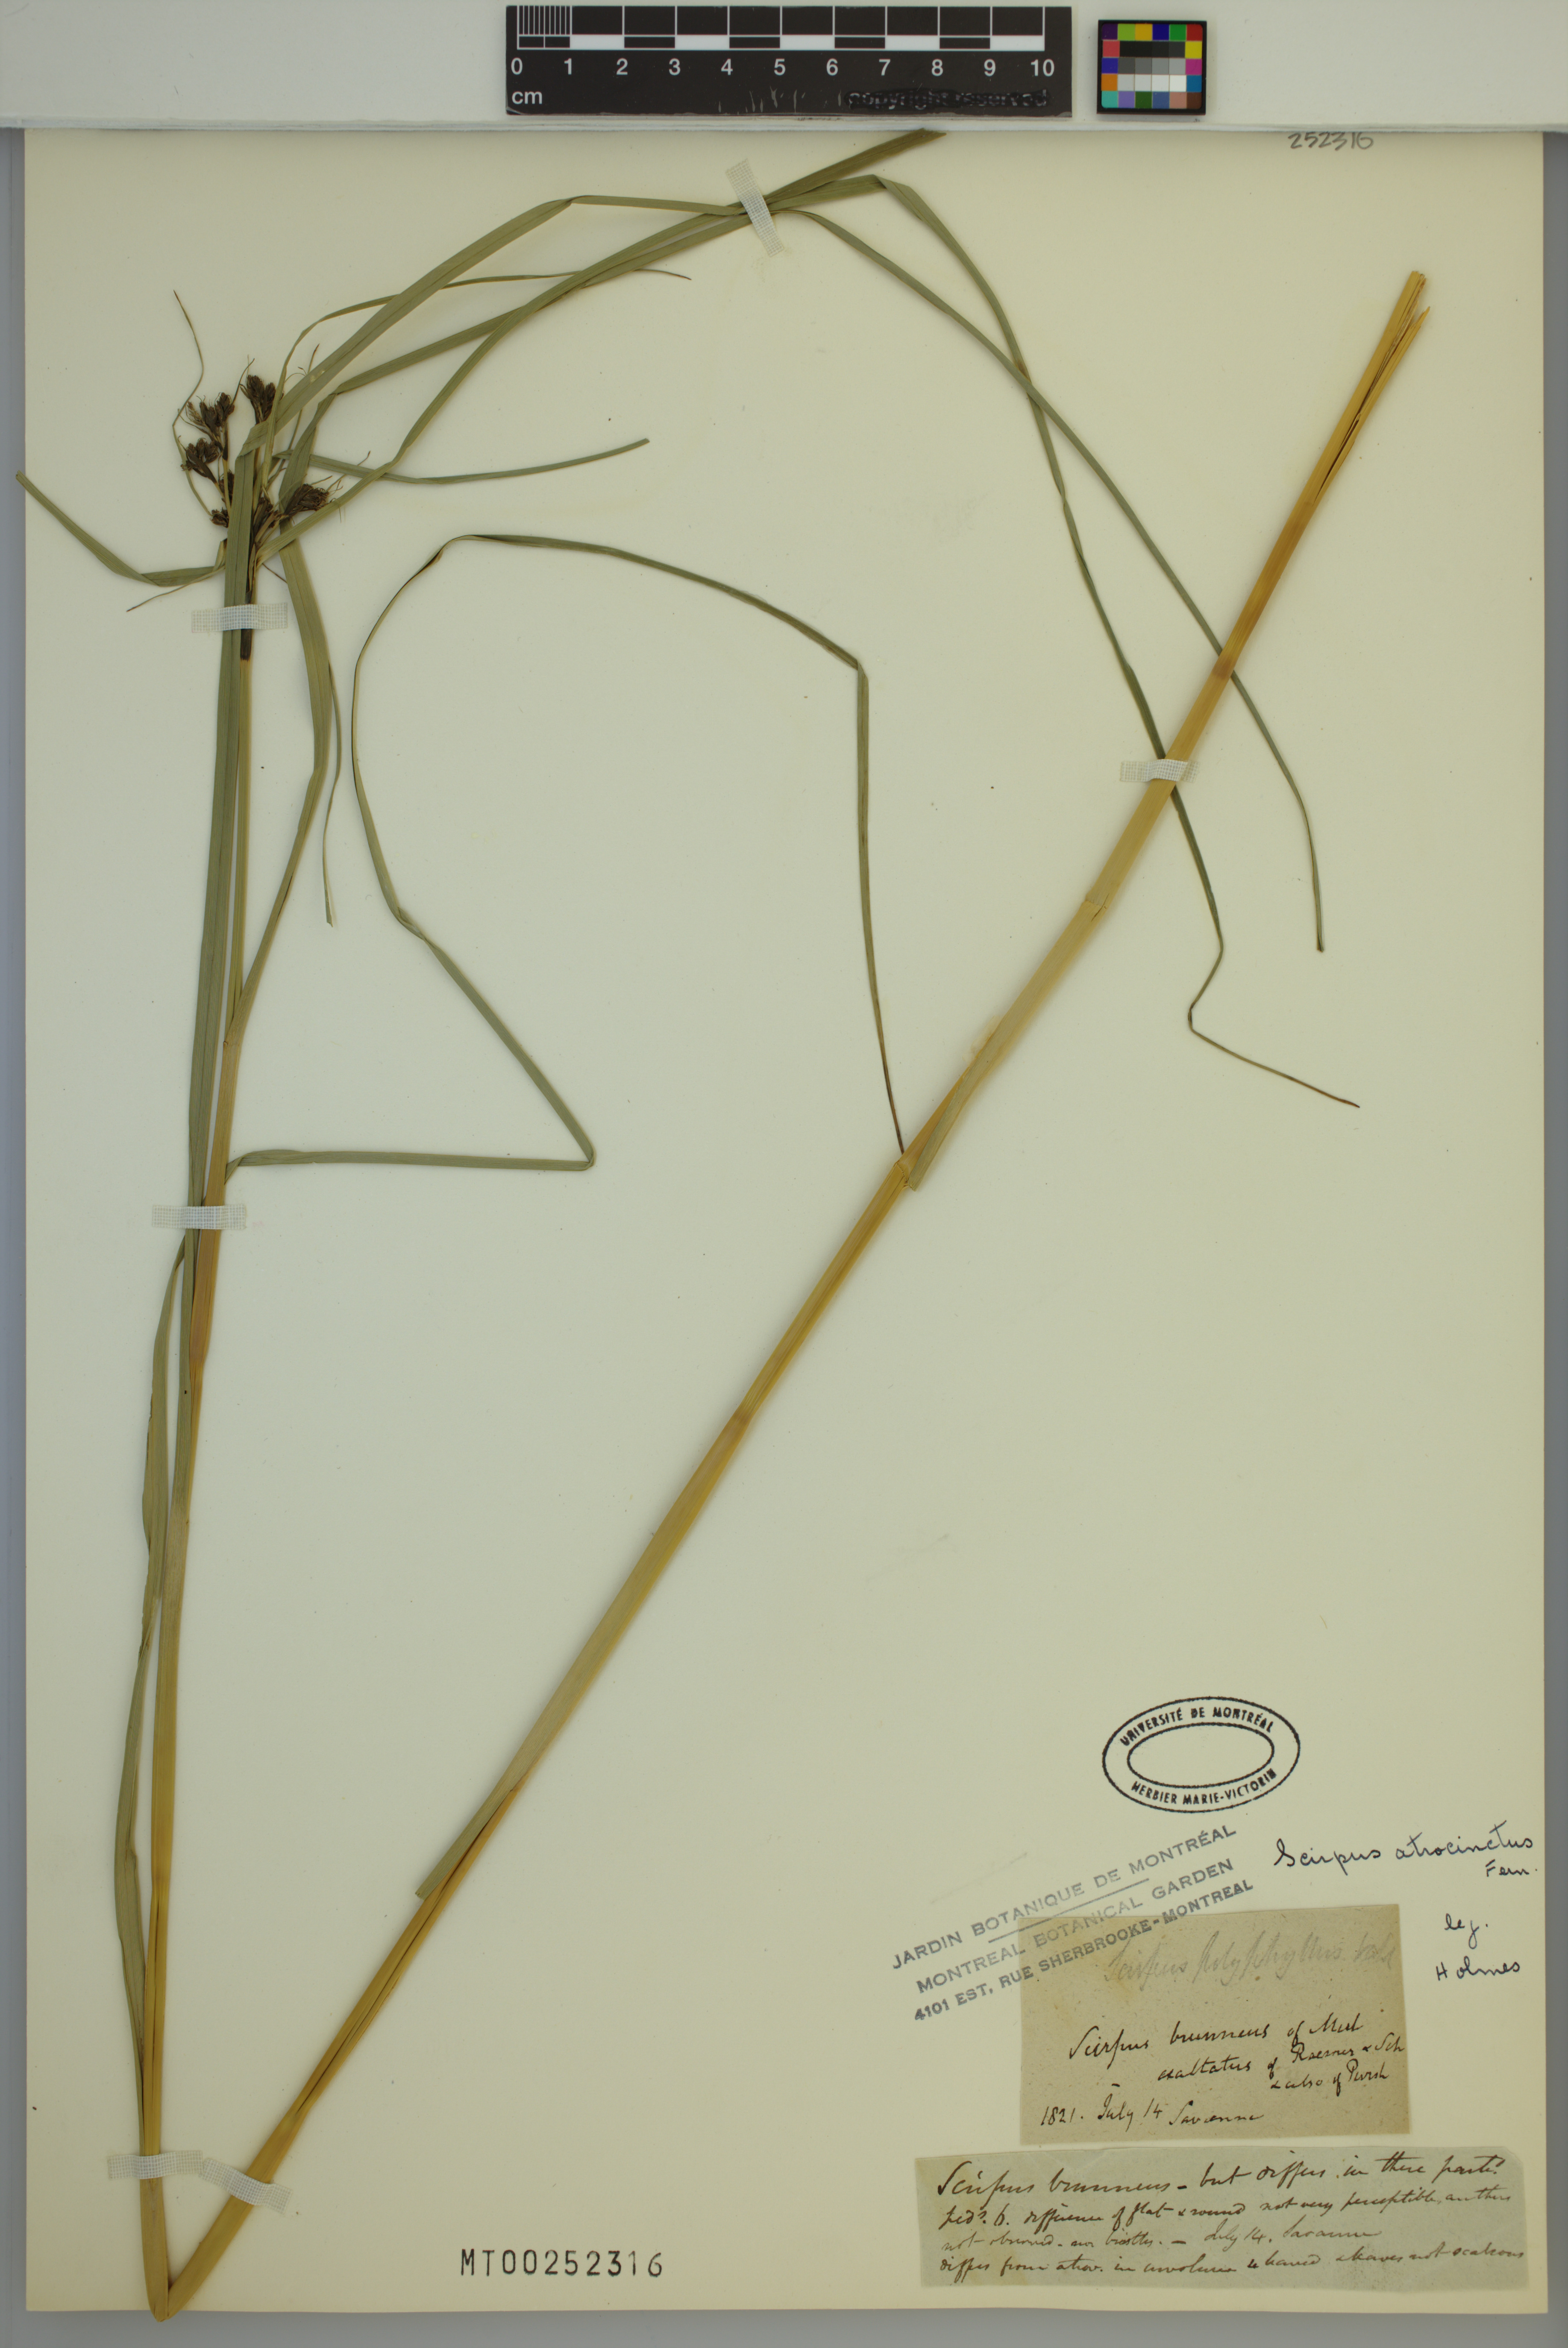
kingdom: Plantae
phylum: Tracheophyta
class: Liliopsida
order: Poales
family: Cyperaceae
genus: Scirpus
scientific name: Scirpus atrocinctus
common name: Black-girdled bulrush
